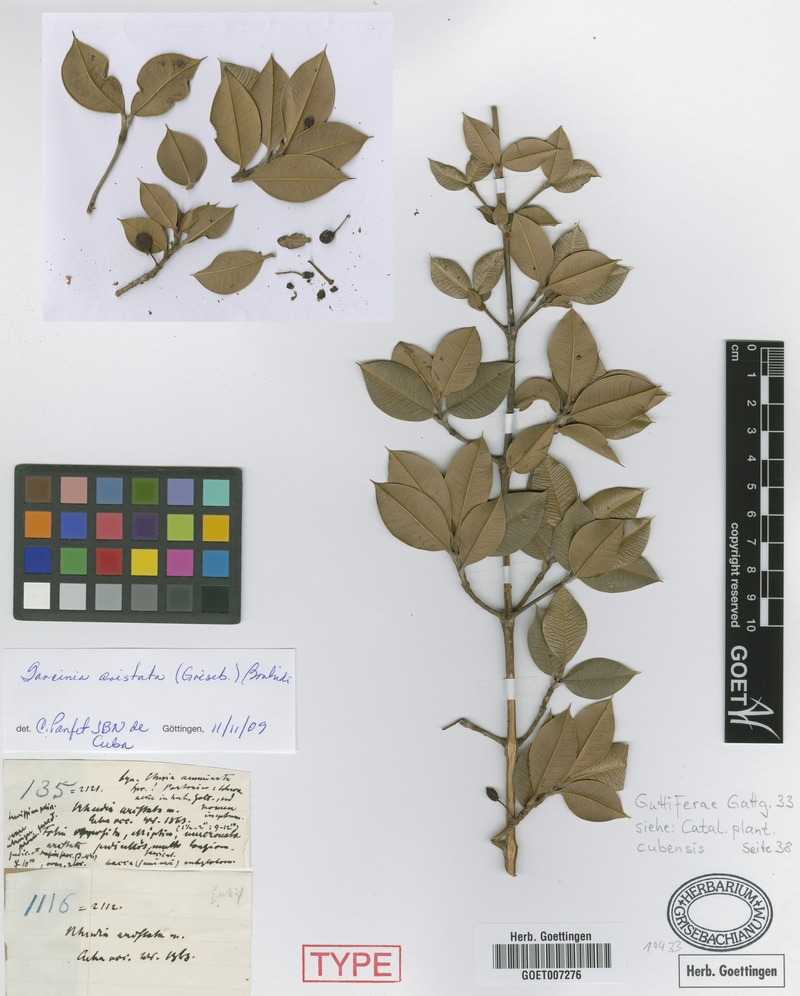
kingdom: Plantae
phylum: Tracheophyta
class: Magnoliopsida
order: Malpighiales
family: Clusiaceae
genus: Garcinia
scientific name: Garcinia aristata
